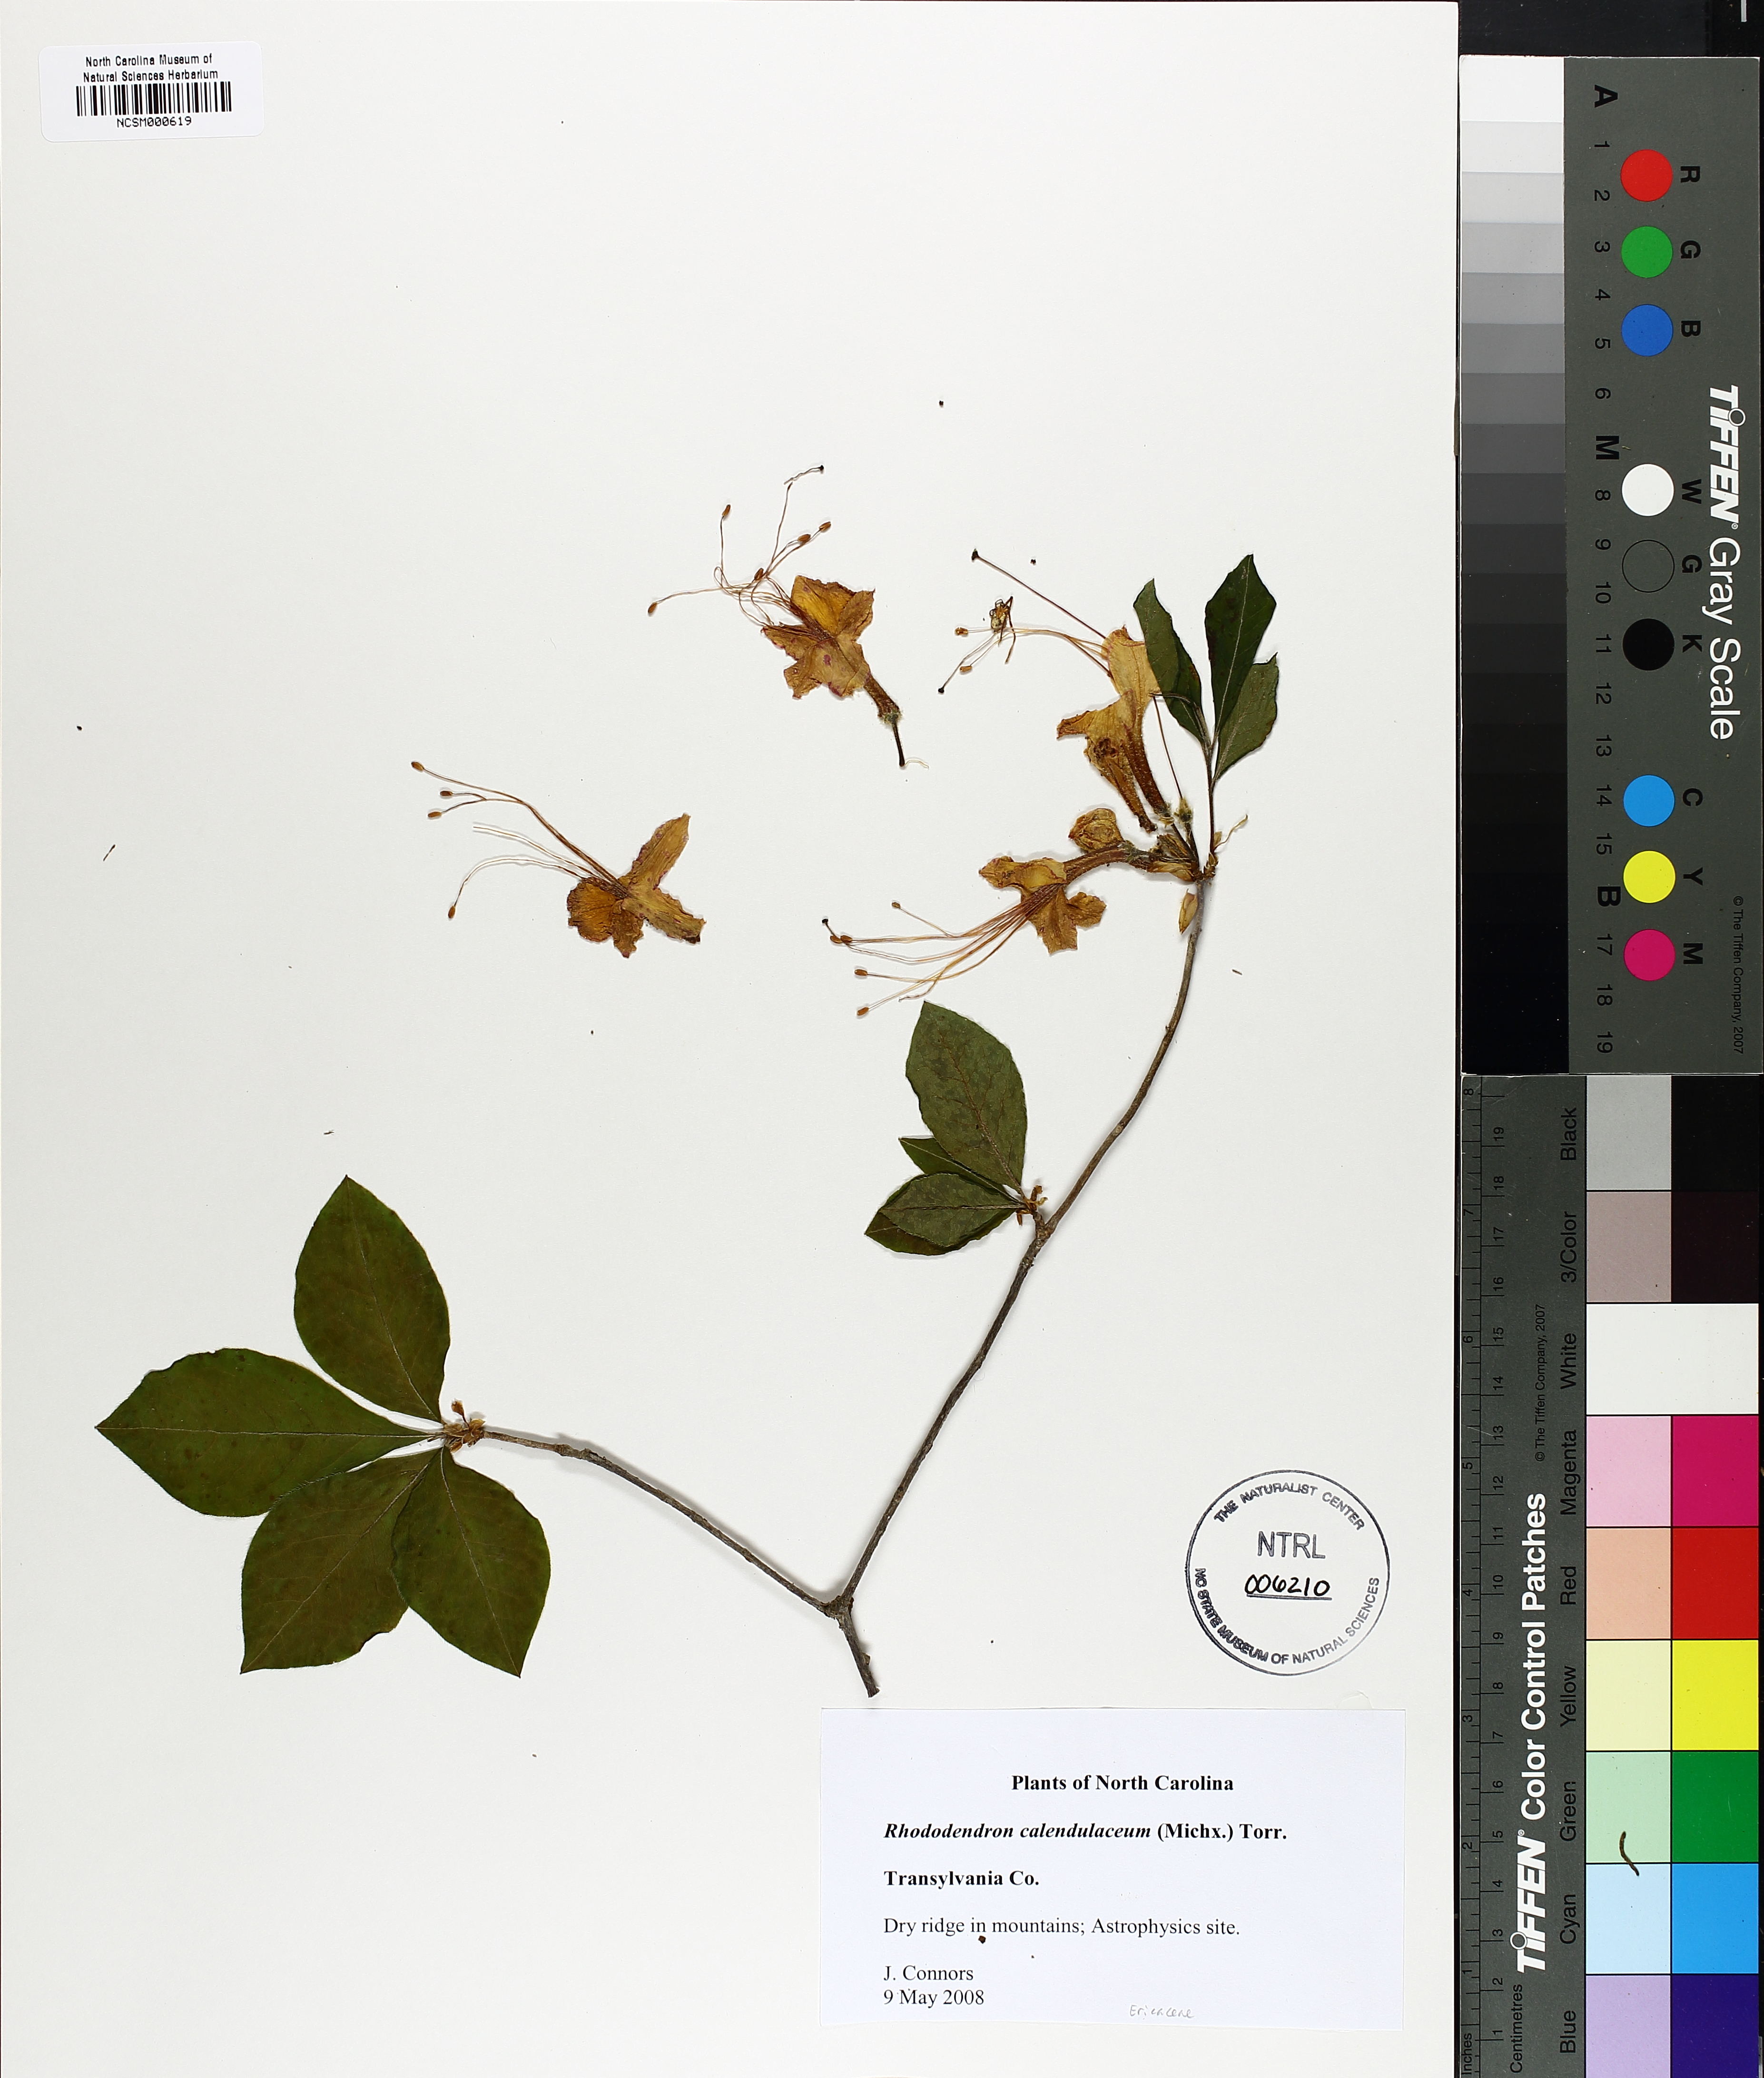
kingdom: Plantae
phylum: Tracheophyta
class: Magnoliopsida
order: Ericales
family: Ericaceae
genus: Rhododendron
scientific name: Rhododendron calendulaceum
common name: Flame azalea
